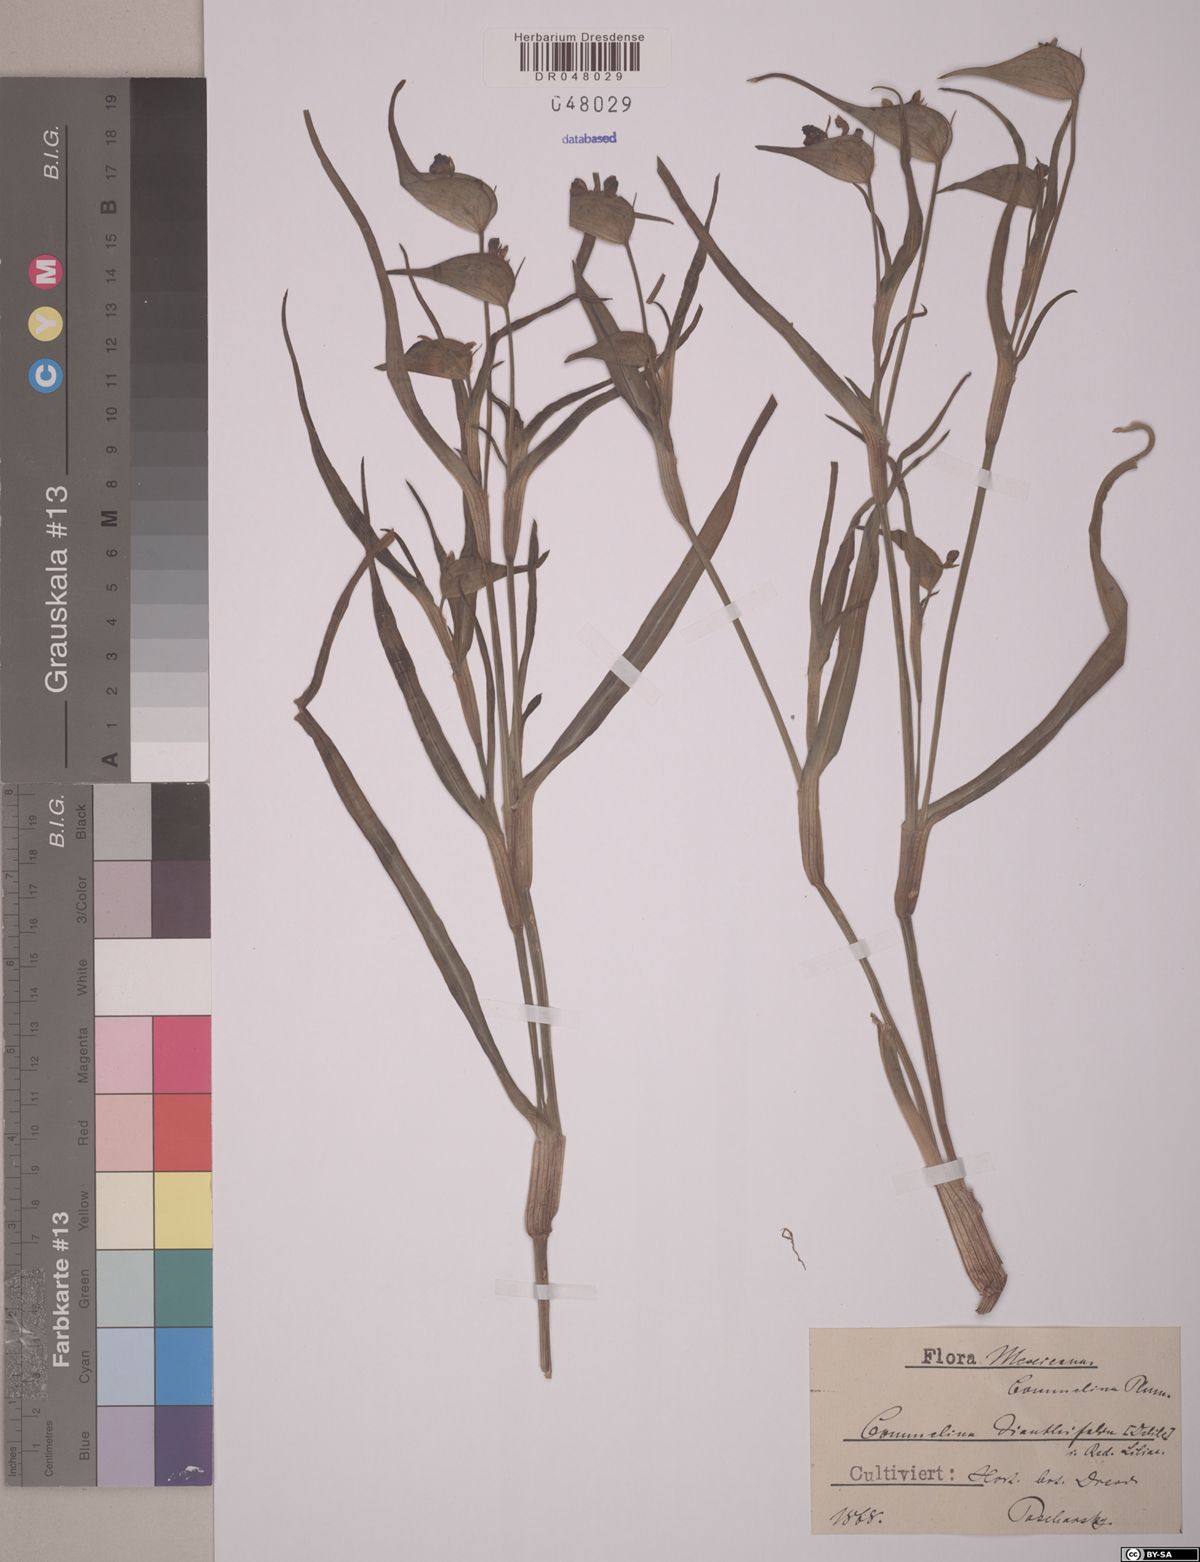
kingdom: Plantae
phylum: Tracheophyta
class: Liliopsida
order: Commelinales
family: Commelinaceae
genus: Commelina
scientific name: Commelina dianthifolia
